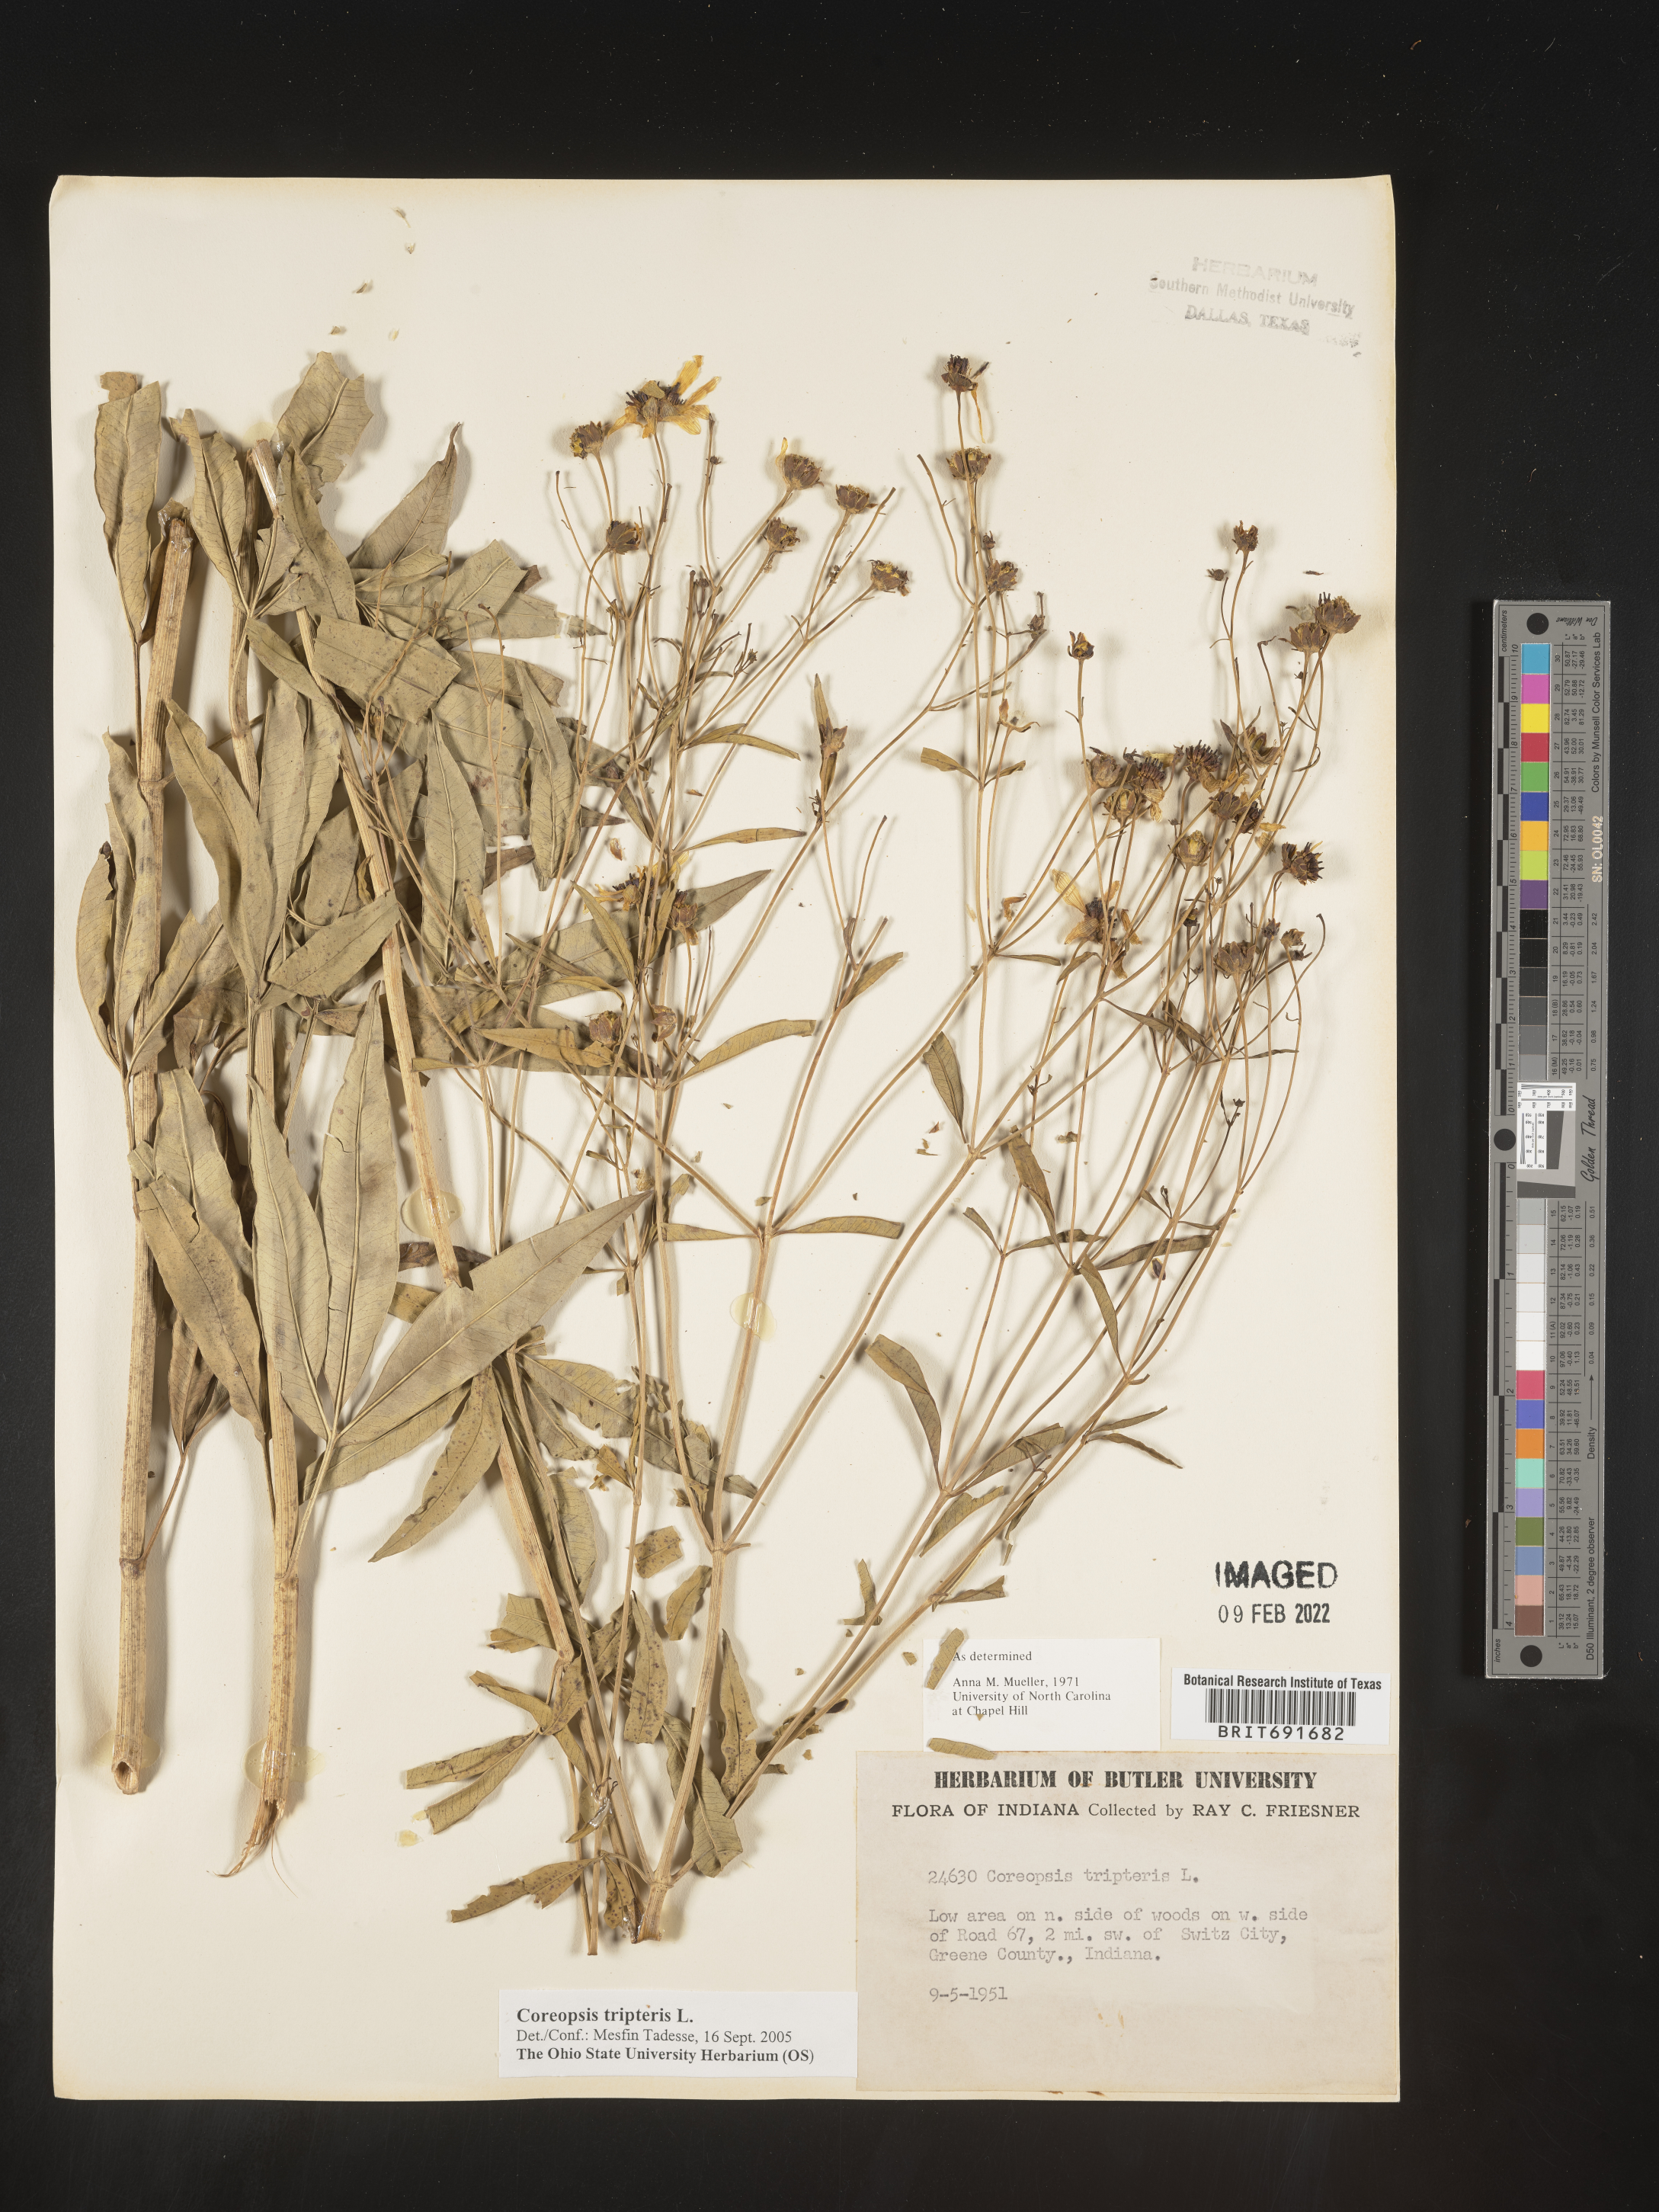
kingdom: Plantae
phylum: Tracheophyta
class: Magnoliopsida
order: Asterales
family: Asteraceae
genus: Coreopsis
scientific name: Coreopsis tripteris
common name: Tall coreopsis
